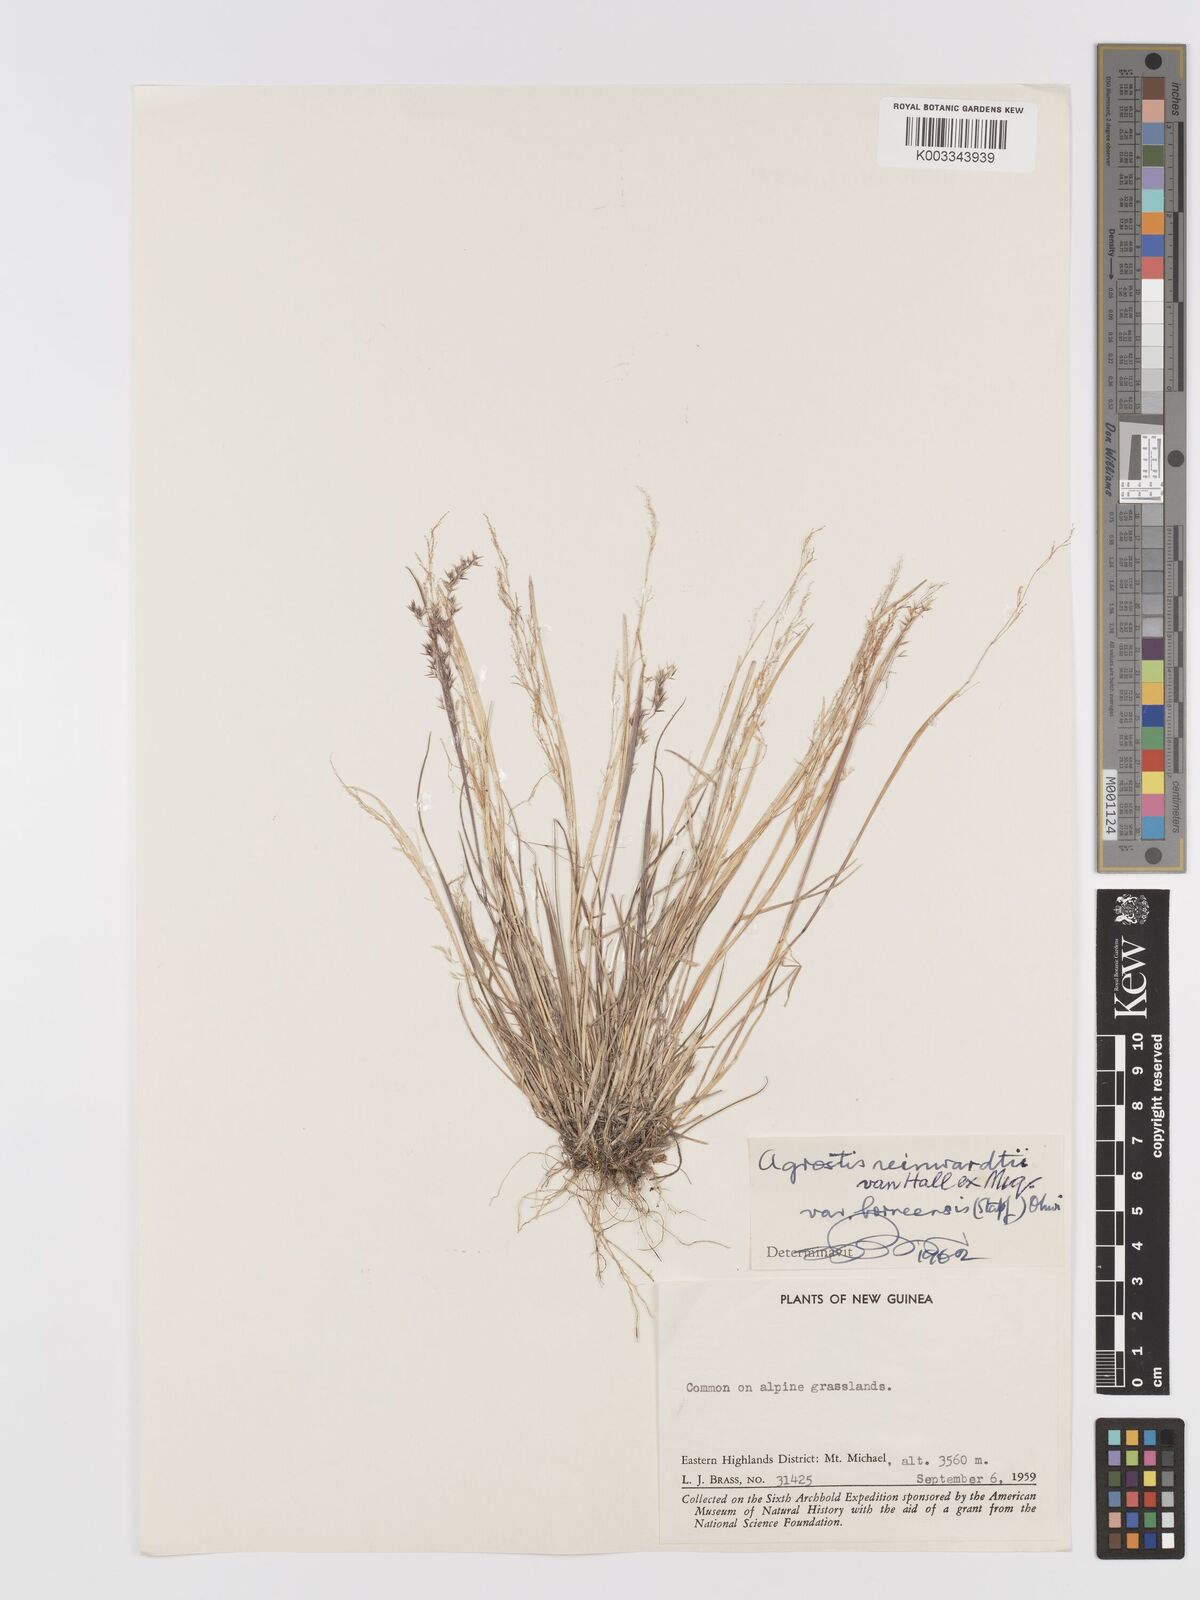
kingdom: Plantae
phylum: Tracheophyta
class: Liliopsida
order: Poales
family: Poaceae
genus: Agrostis
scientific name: Agrostis infirma
